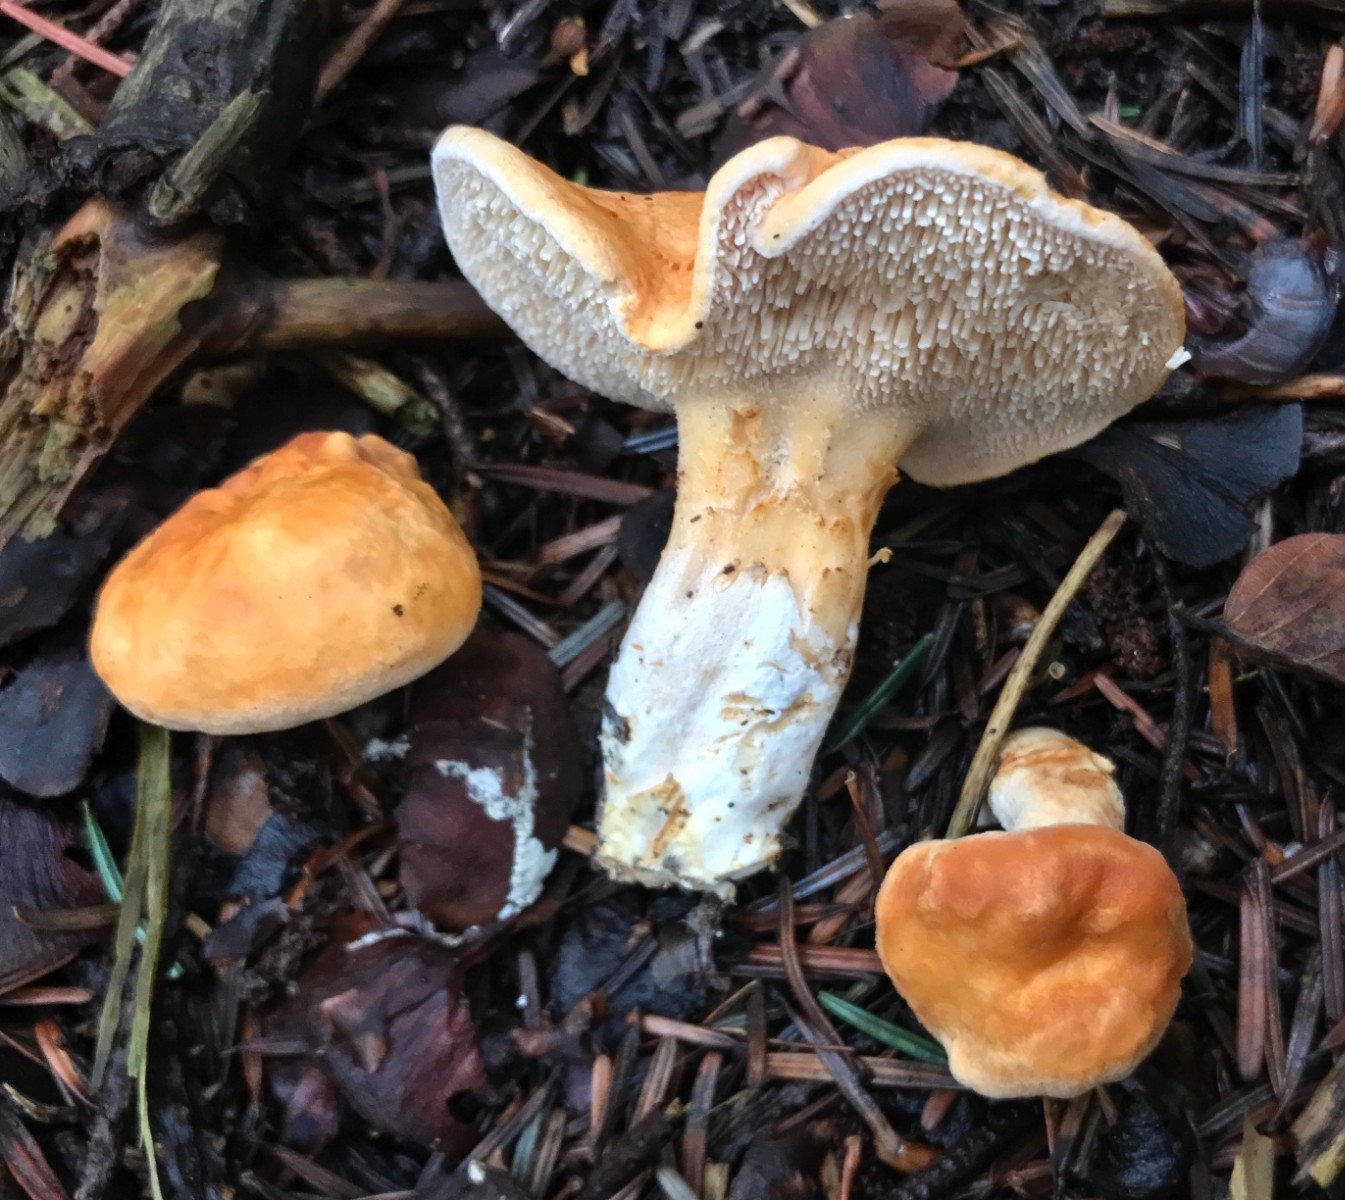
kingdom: Fungi
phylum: Basidiomycota
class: Agaricomycetes
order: Cantharellales
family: Hydnaceae
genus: Hydnum
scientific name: Hydnum
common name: pigsvamp
